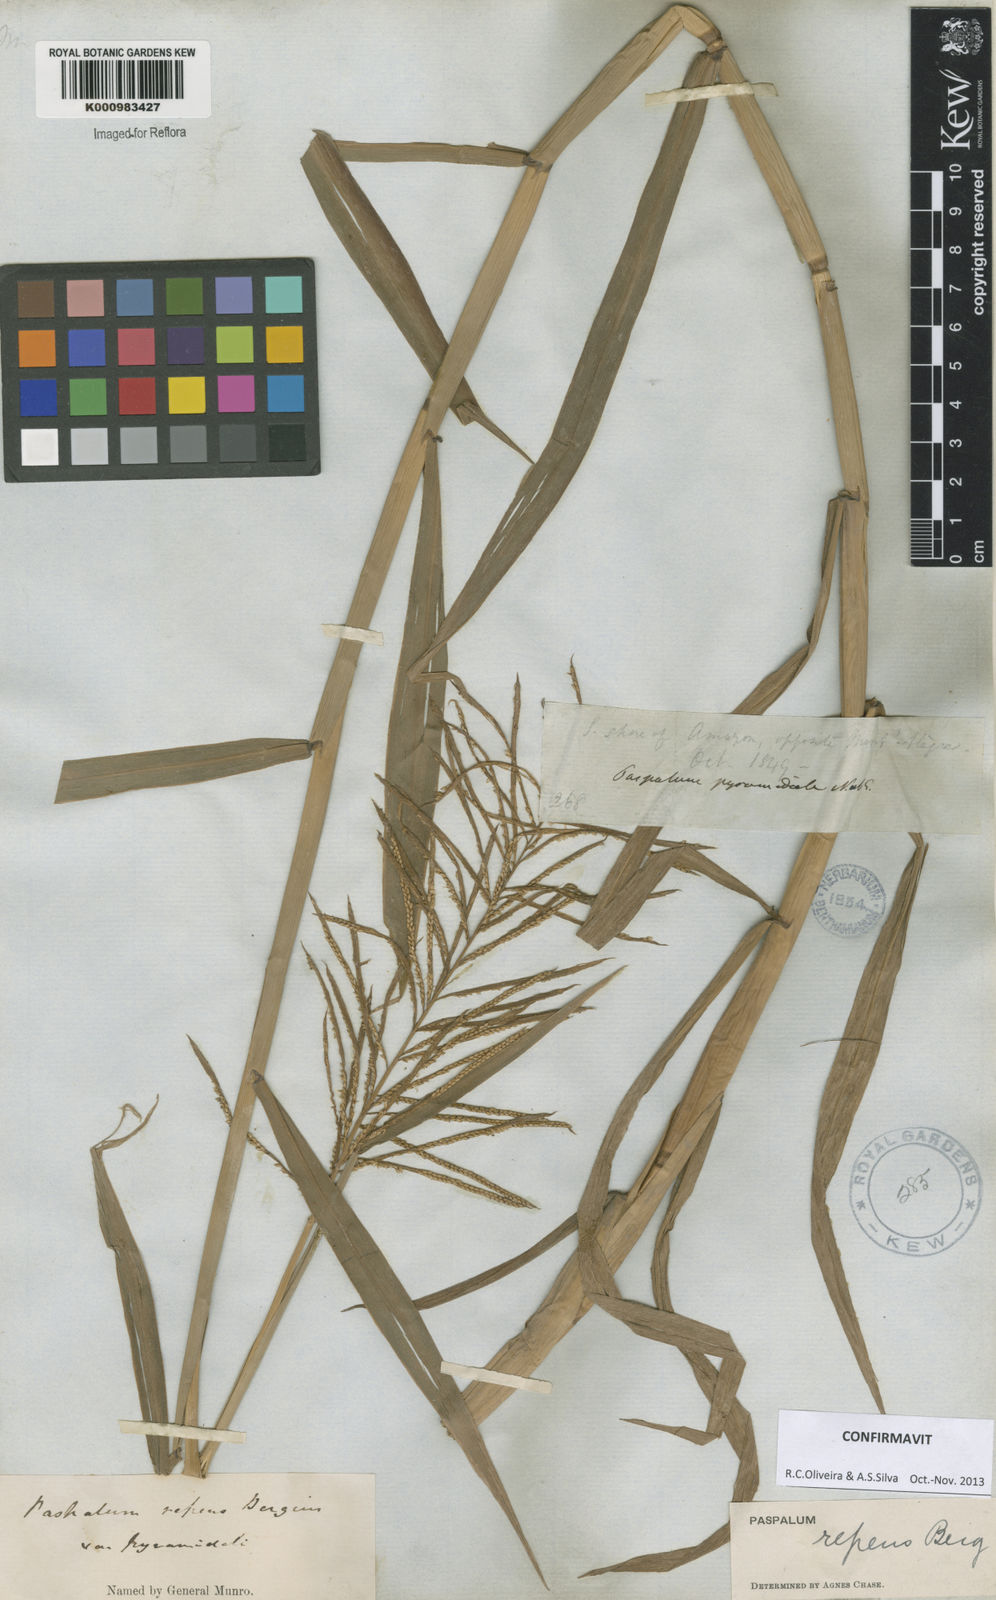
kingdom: Plantae
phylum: Tracheophyta
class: Liliopsida
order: Poales
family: Poaceae
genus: Paspalum
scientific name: Paspalum repens
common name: Water paspalum
